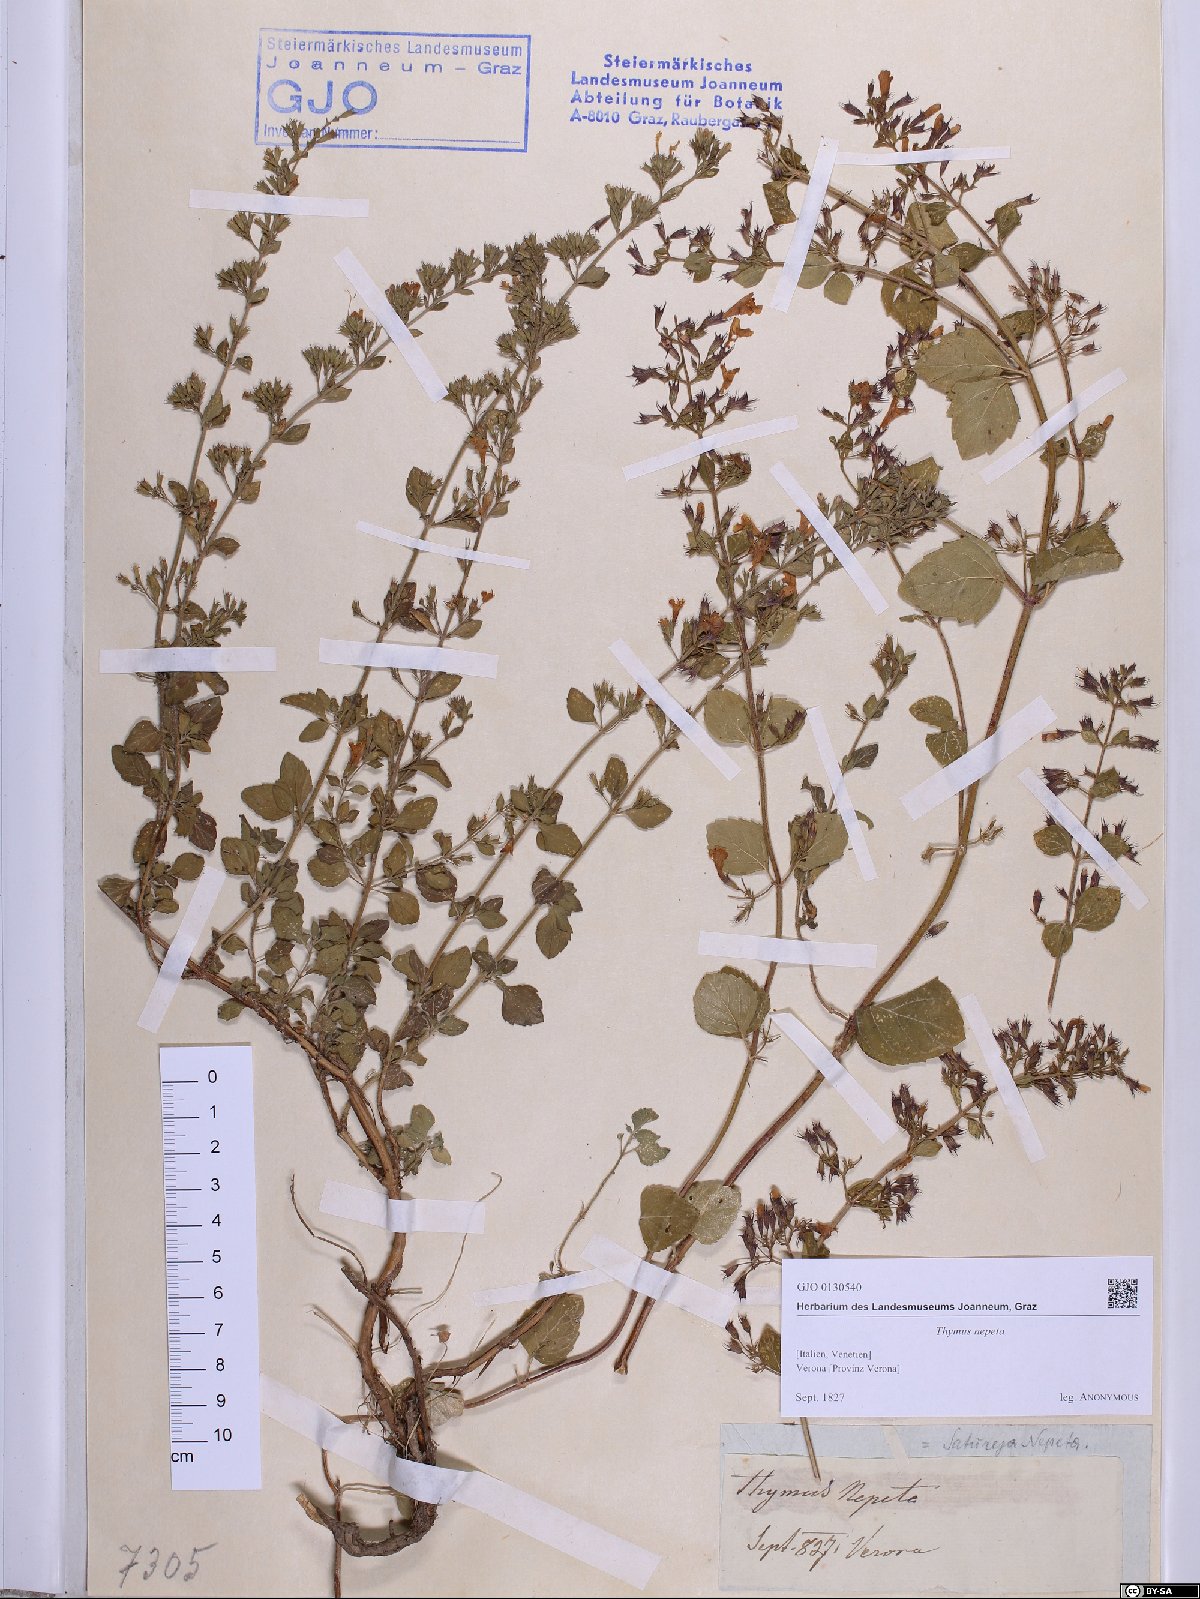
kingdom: Plantae
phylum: Tracheophyta
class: Magnoliopsida
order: Lamiales
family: Lamiaceae
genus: Clinopodium
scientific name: Clinopodium nepeta
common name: Lesser calamint
